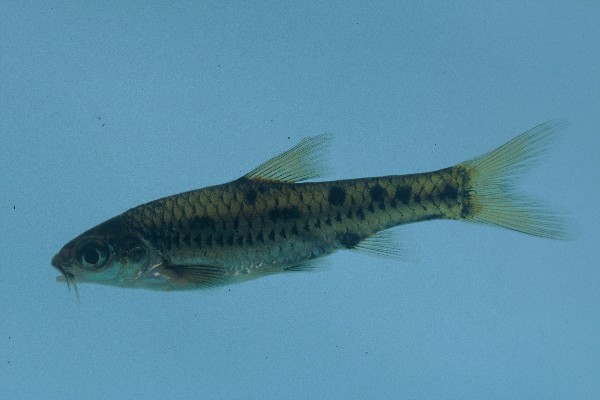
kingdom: Animalia
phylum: Chordata
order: Cypriniformes
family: Cyprinidae
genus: Enteromius
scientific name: Enteromius lineomaculatus
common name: Line-spotted barb
